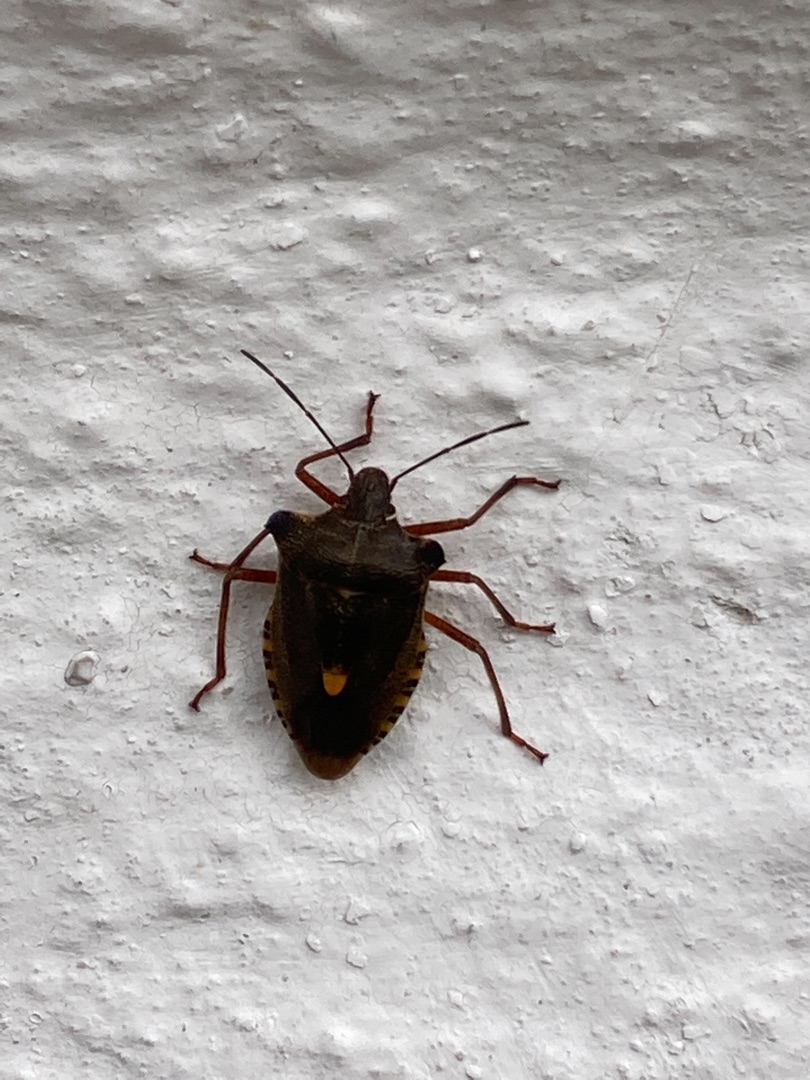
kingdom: Animalia
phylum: Arthropoda
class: Insecta
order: Hemiptera
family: Pentatomidae
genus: Pentatoma
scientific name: Pentatoma rufipes
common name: Rødbenet bredtæge
